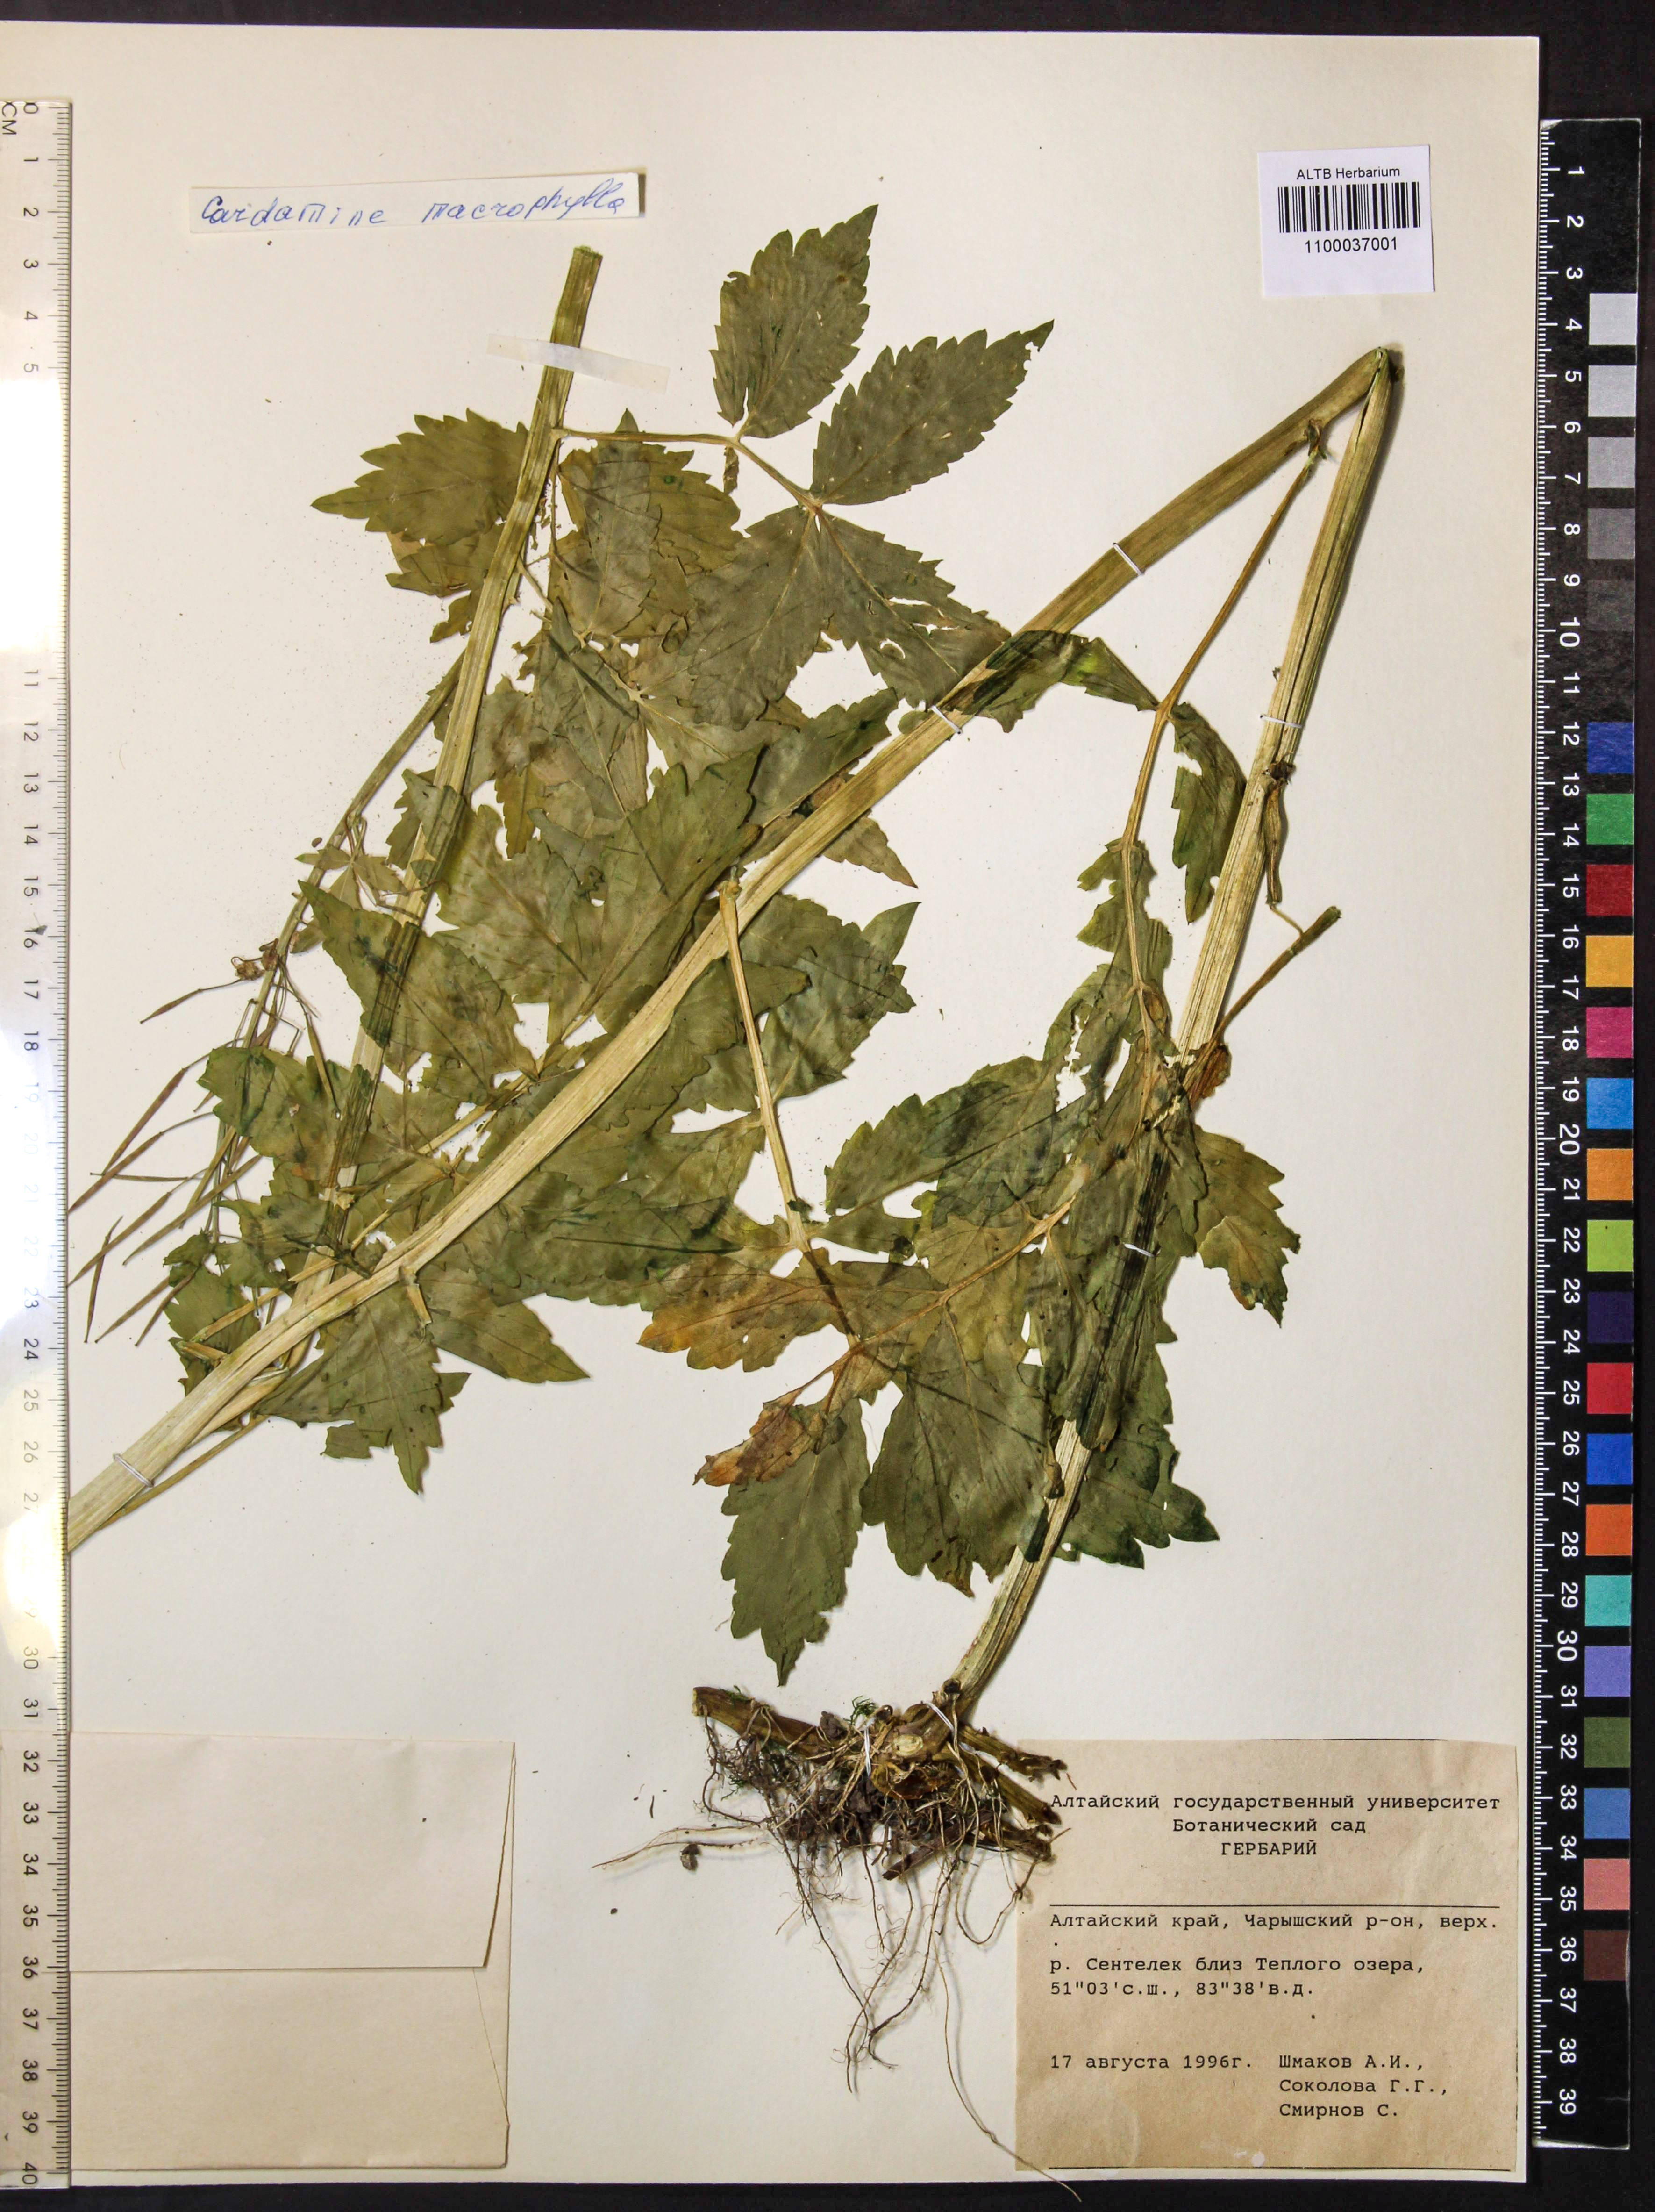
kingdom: Plantae
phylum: Tracheophyta
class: Magnoliopsida
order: Brassicales
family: Brassicaceae
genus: Cardamine
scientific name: Cardamine macrophylla
